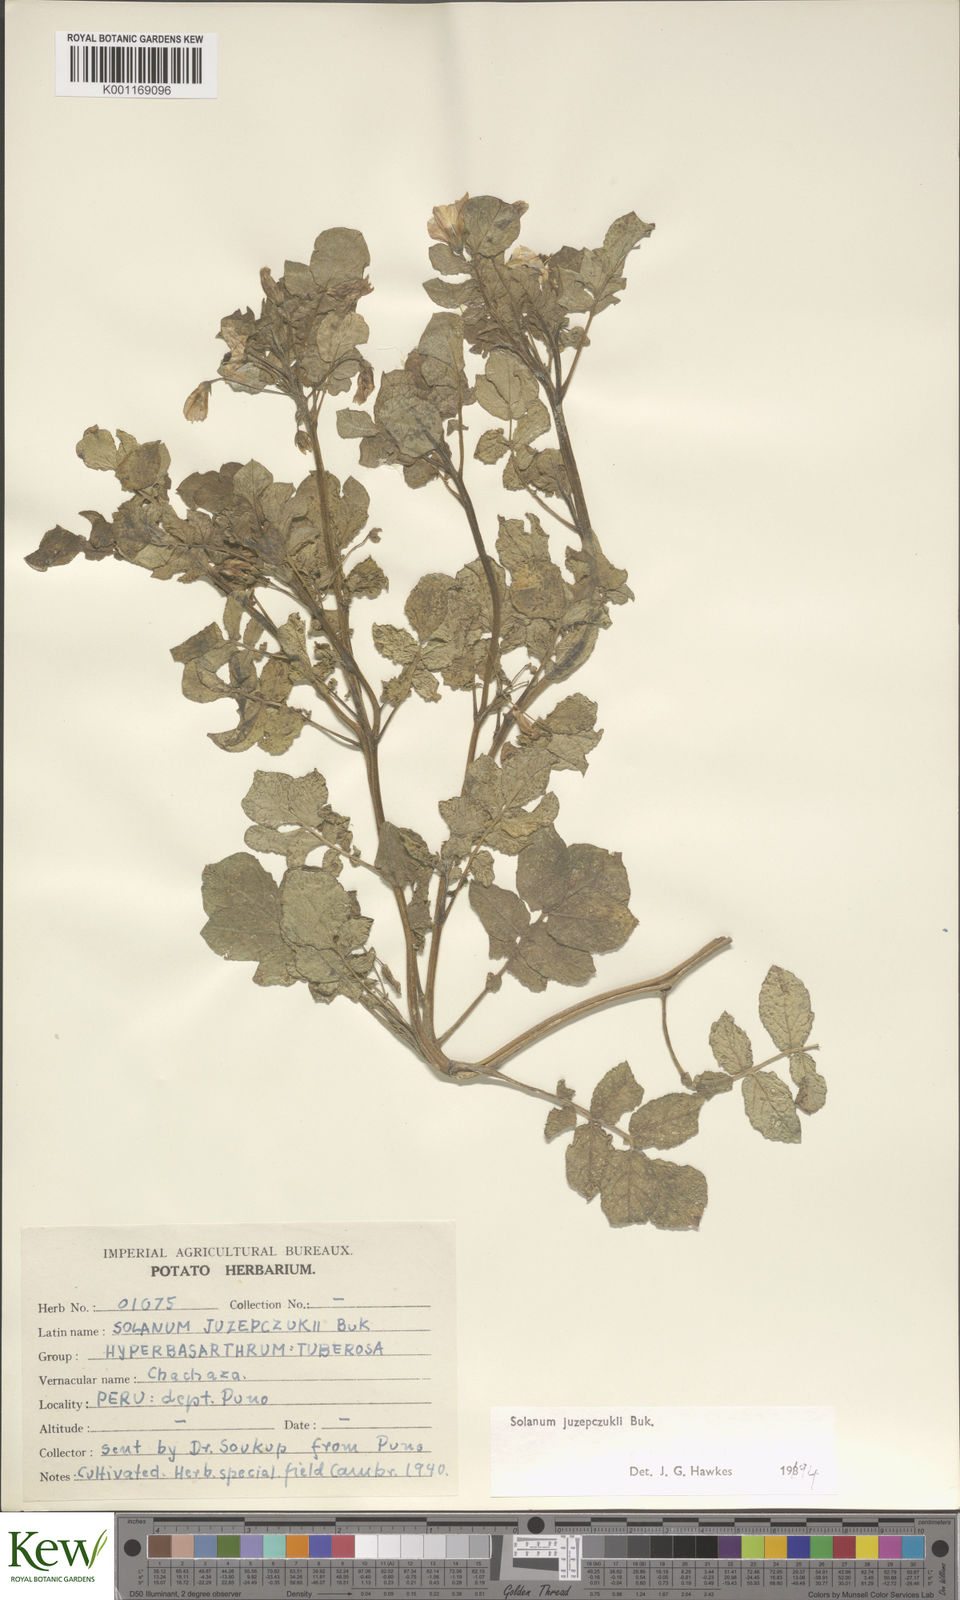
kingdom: Plantae
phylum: Tracheophyta
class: Magnoliopsida
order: Solanales
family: Solanaceae
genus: Solanum
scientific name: Solanum juzepczukii
